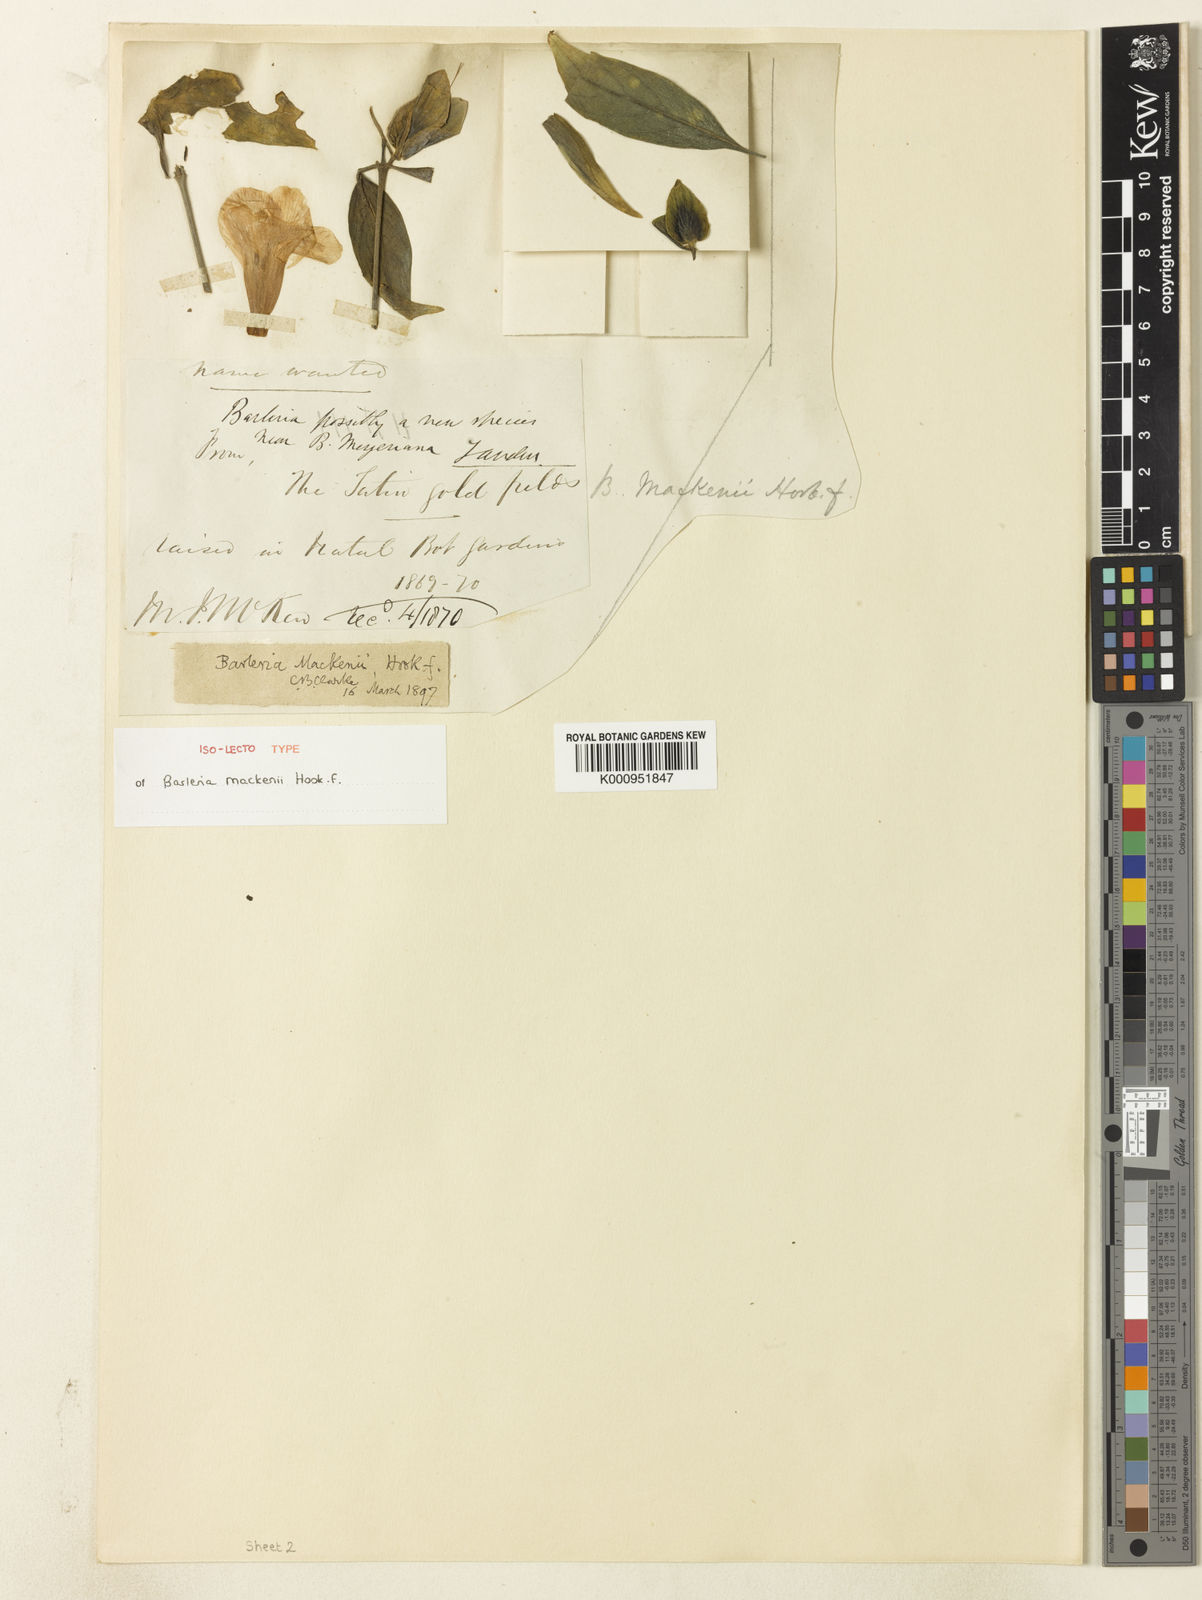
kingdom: Plantae
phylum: Tracheophyta
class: Magnoliopsida
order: Lamiales
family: Acanthaceae
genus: Barleria
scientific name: Barleria mackenii
